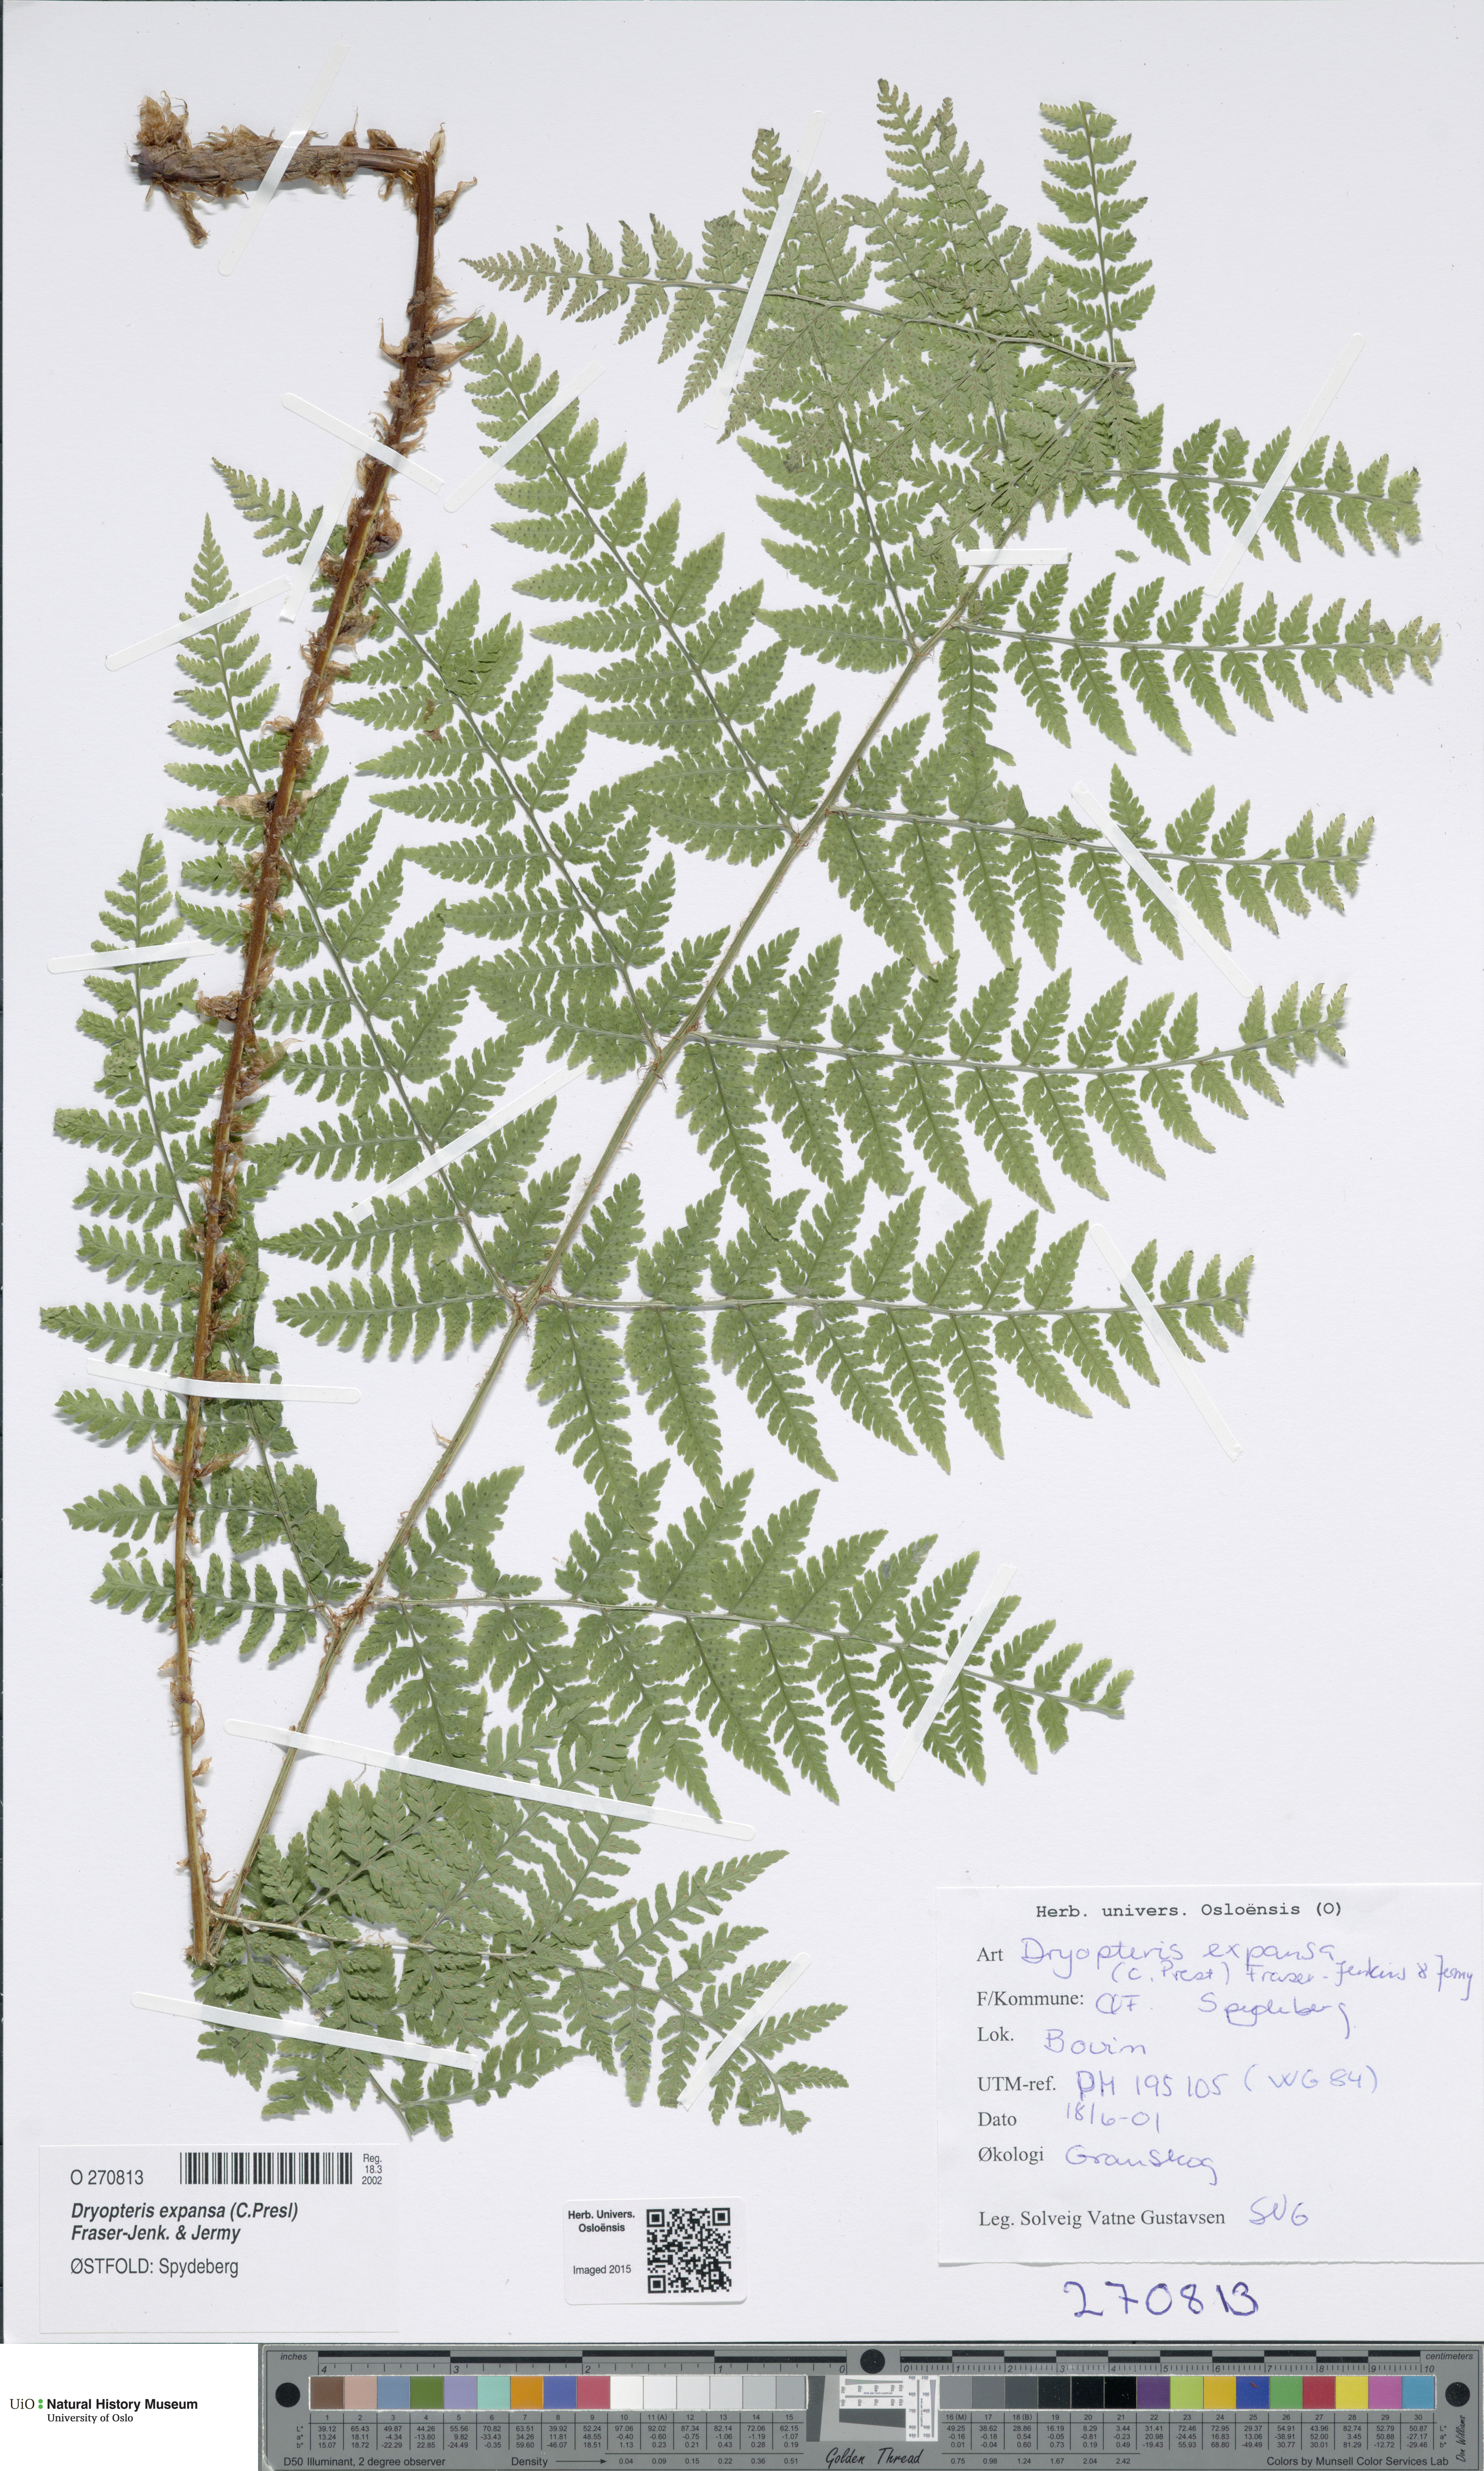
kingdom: Plantae
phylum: Tracheophyta
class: Polypodiopsida
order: Polypodiales
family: Dryopteridaceae
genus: Dryopteris
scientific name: Dryopteris expansa
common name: Northern buckler fern
